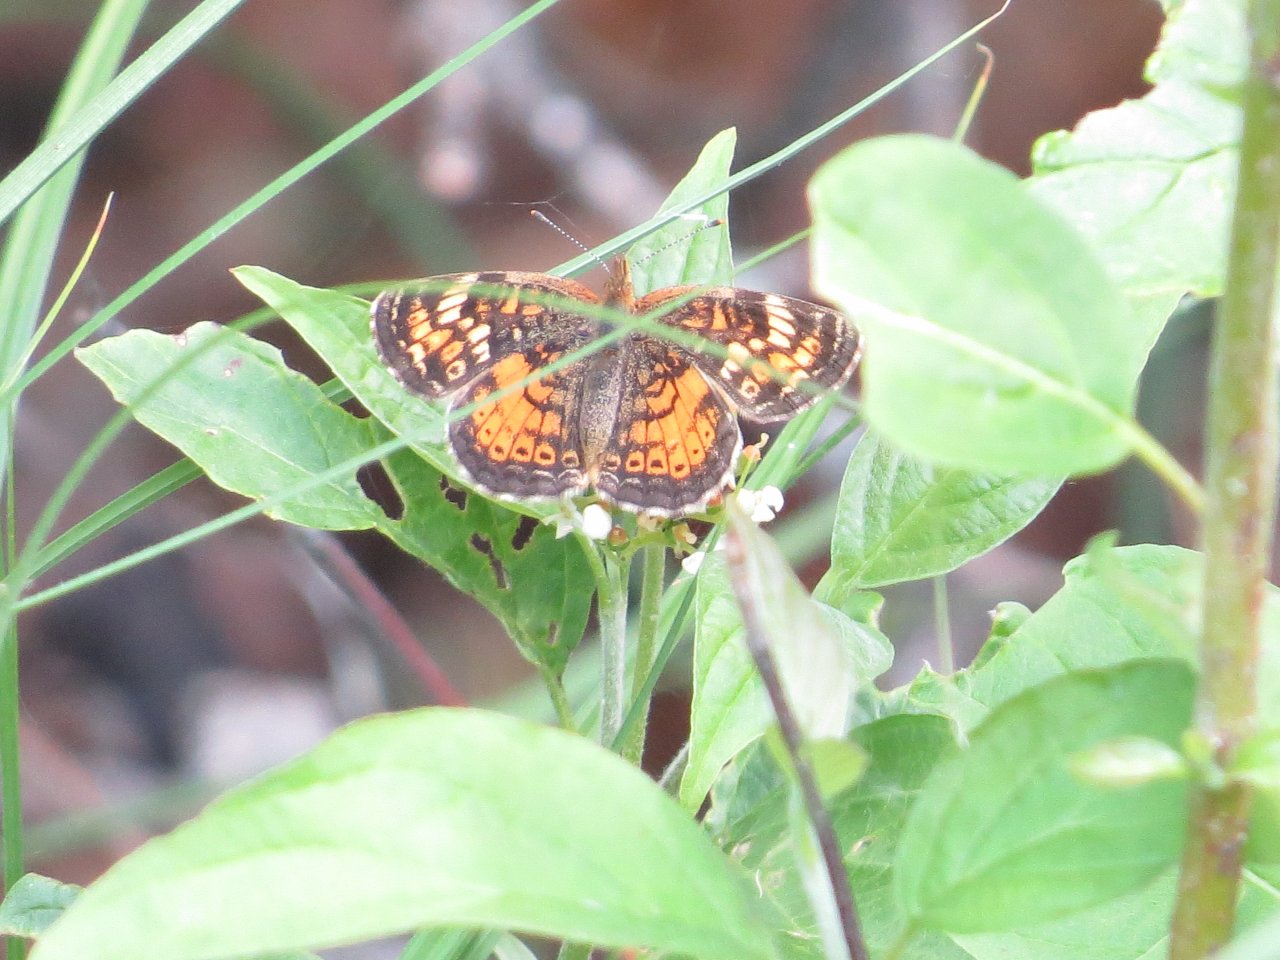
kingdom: Animalia
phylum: Arthropoda
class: Insecta
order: Lepidoptera
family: Nymphalidae
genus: Phyciodes
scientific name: Phyciodes tharos
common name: Northern Crescent
